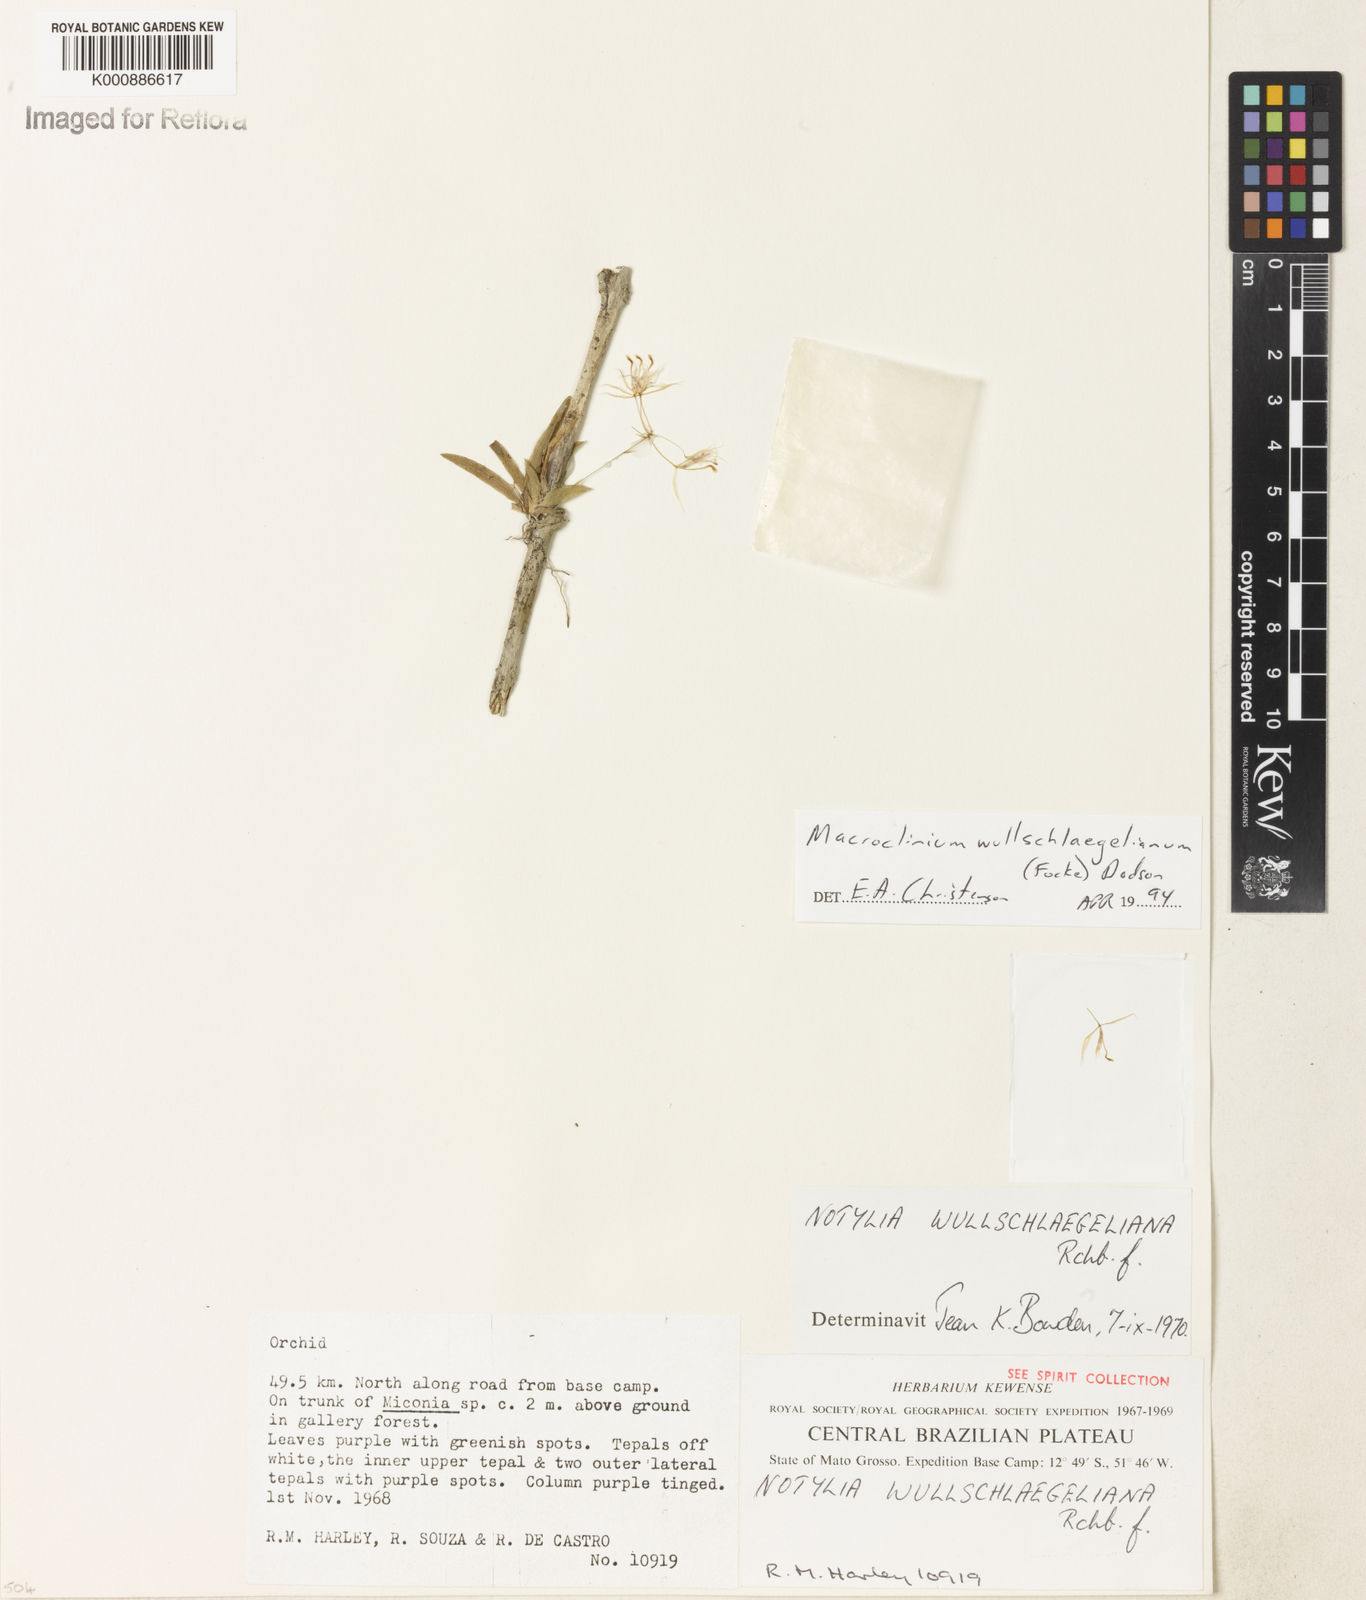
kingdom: Plantae
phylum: Tracheophyta
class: Liliopsida
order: Asparagales
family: Orchidaceae
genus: Macroclinium
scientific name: Macroclinium wullschlaegelianum
